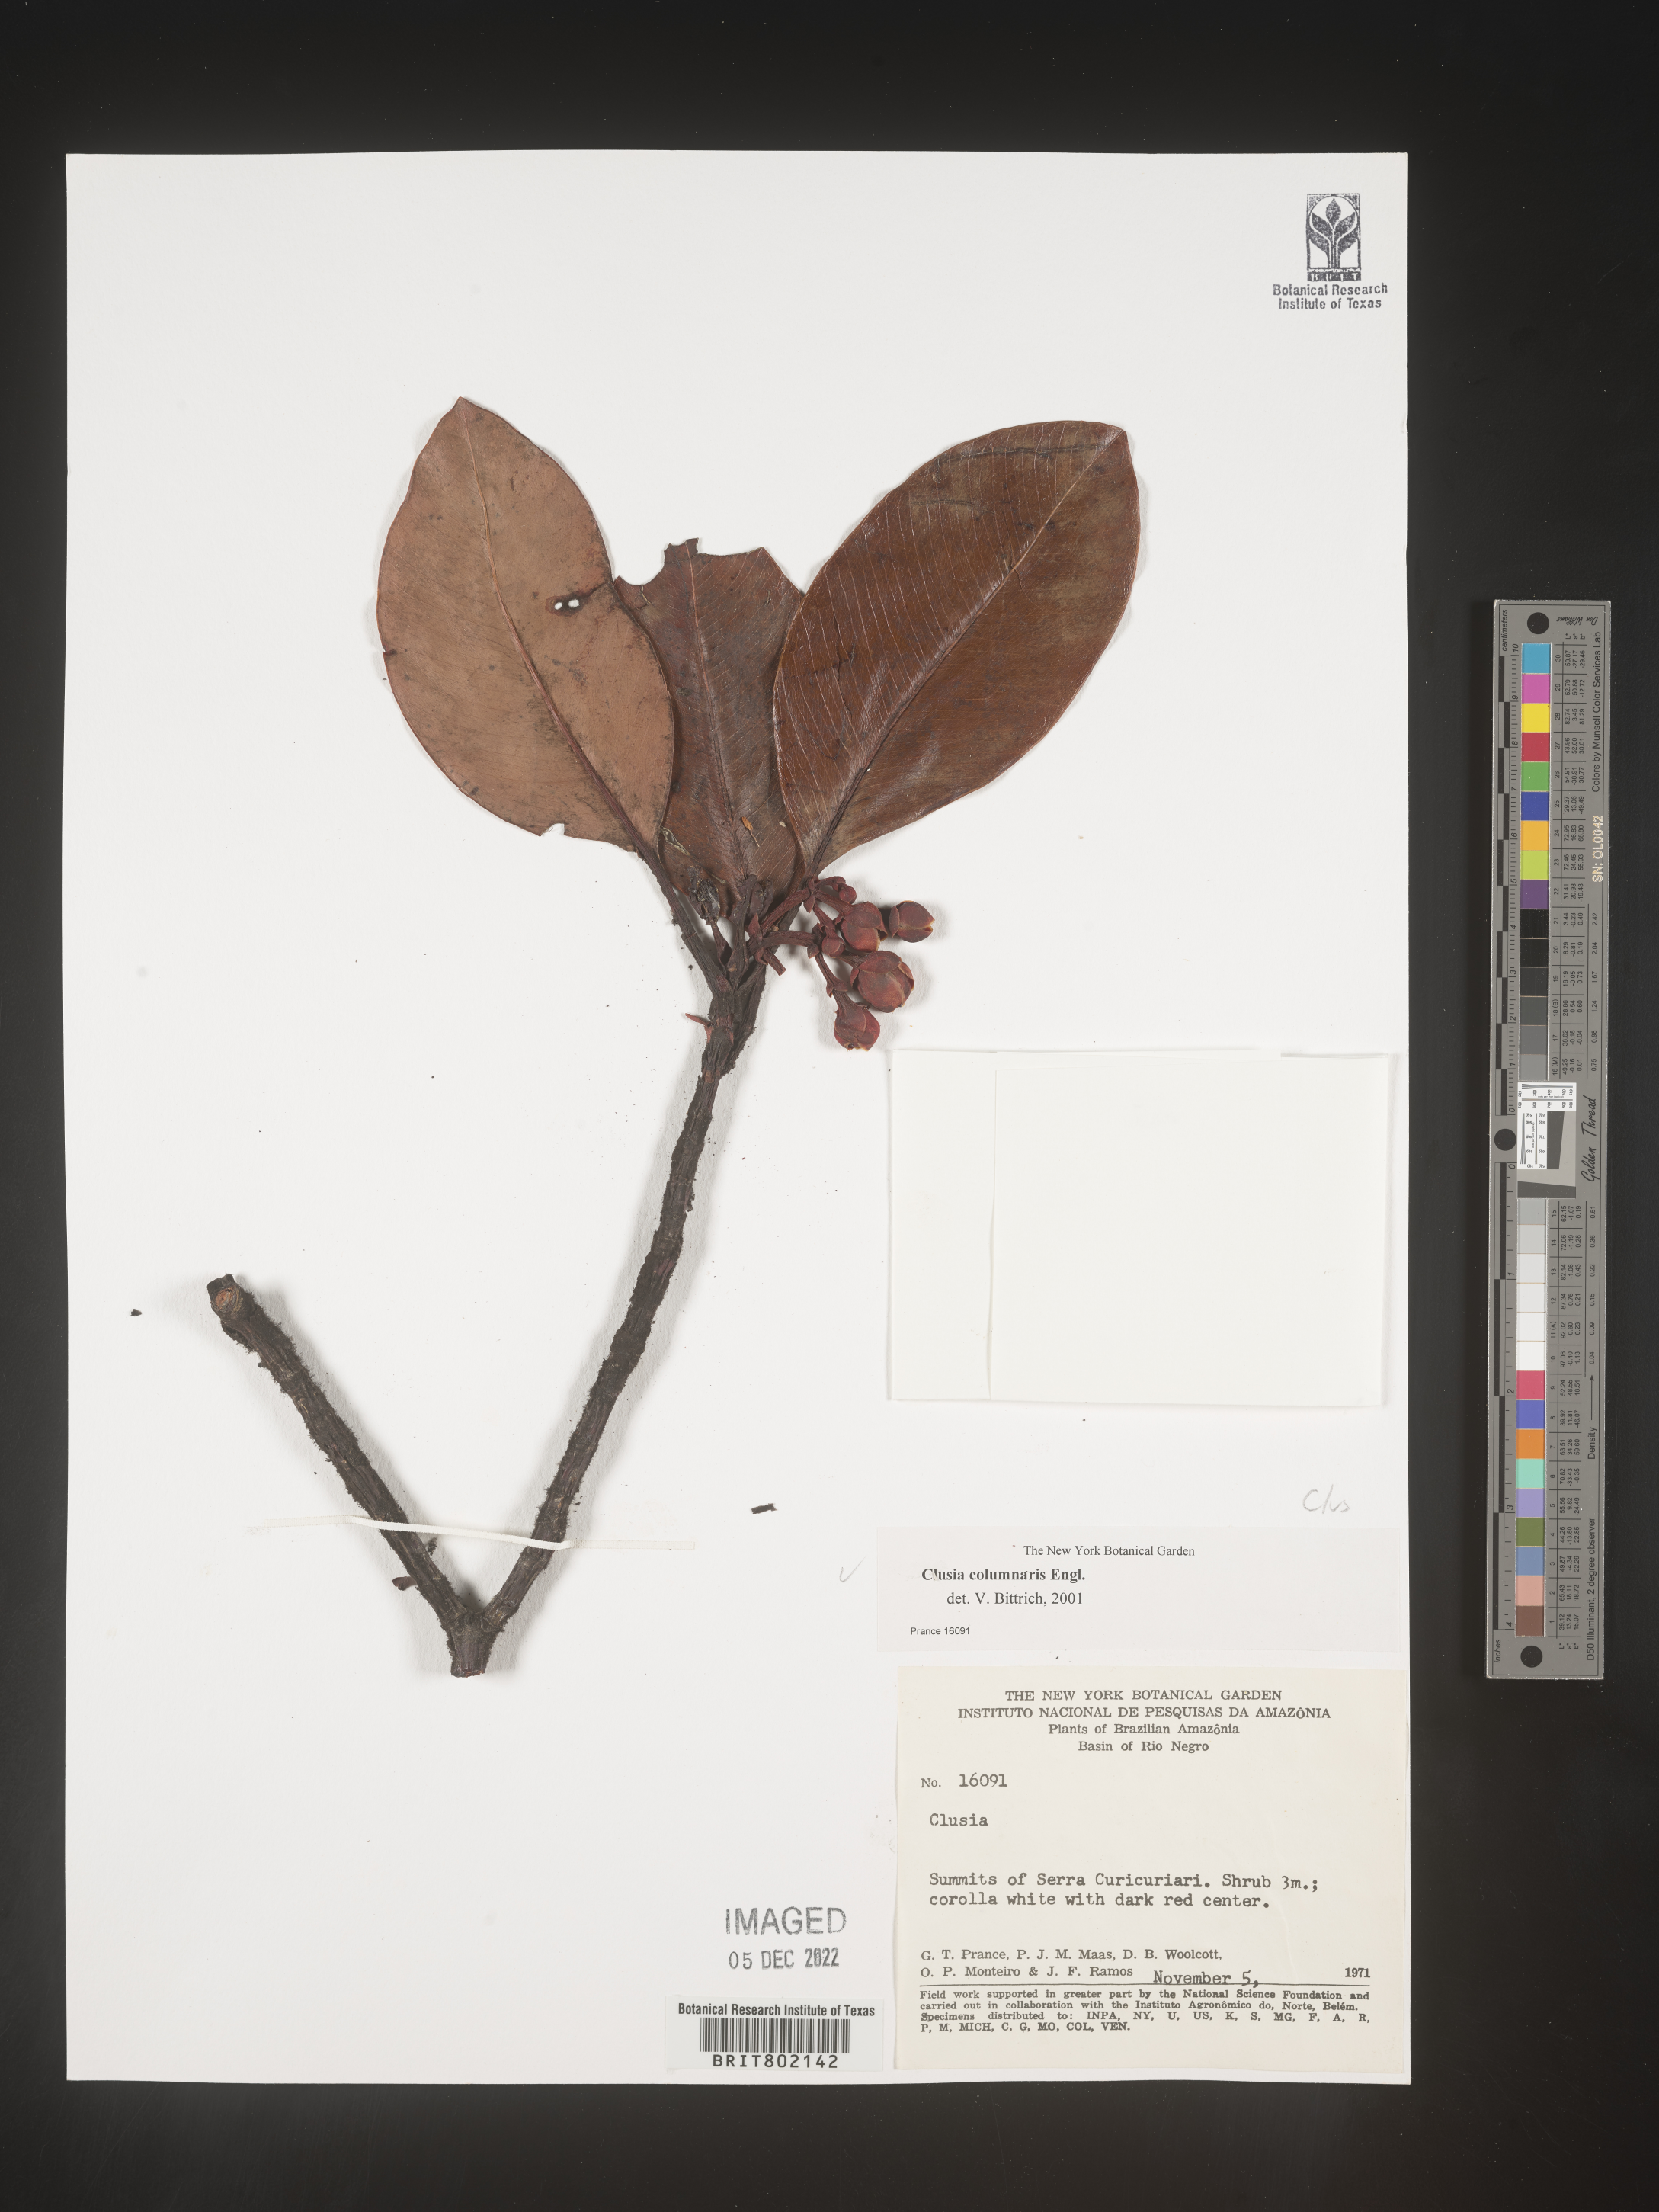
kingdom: Plantae
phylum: Tracheophyta
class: Magnoliopsida
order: Malpighiales
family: Clusiaceae
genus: Clusia
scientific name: Clusia columnaris
